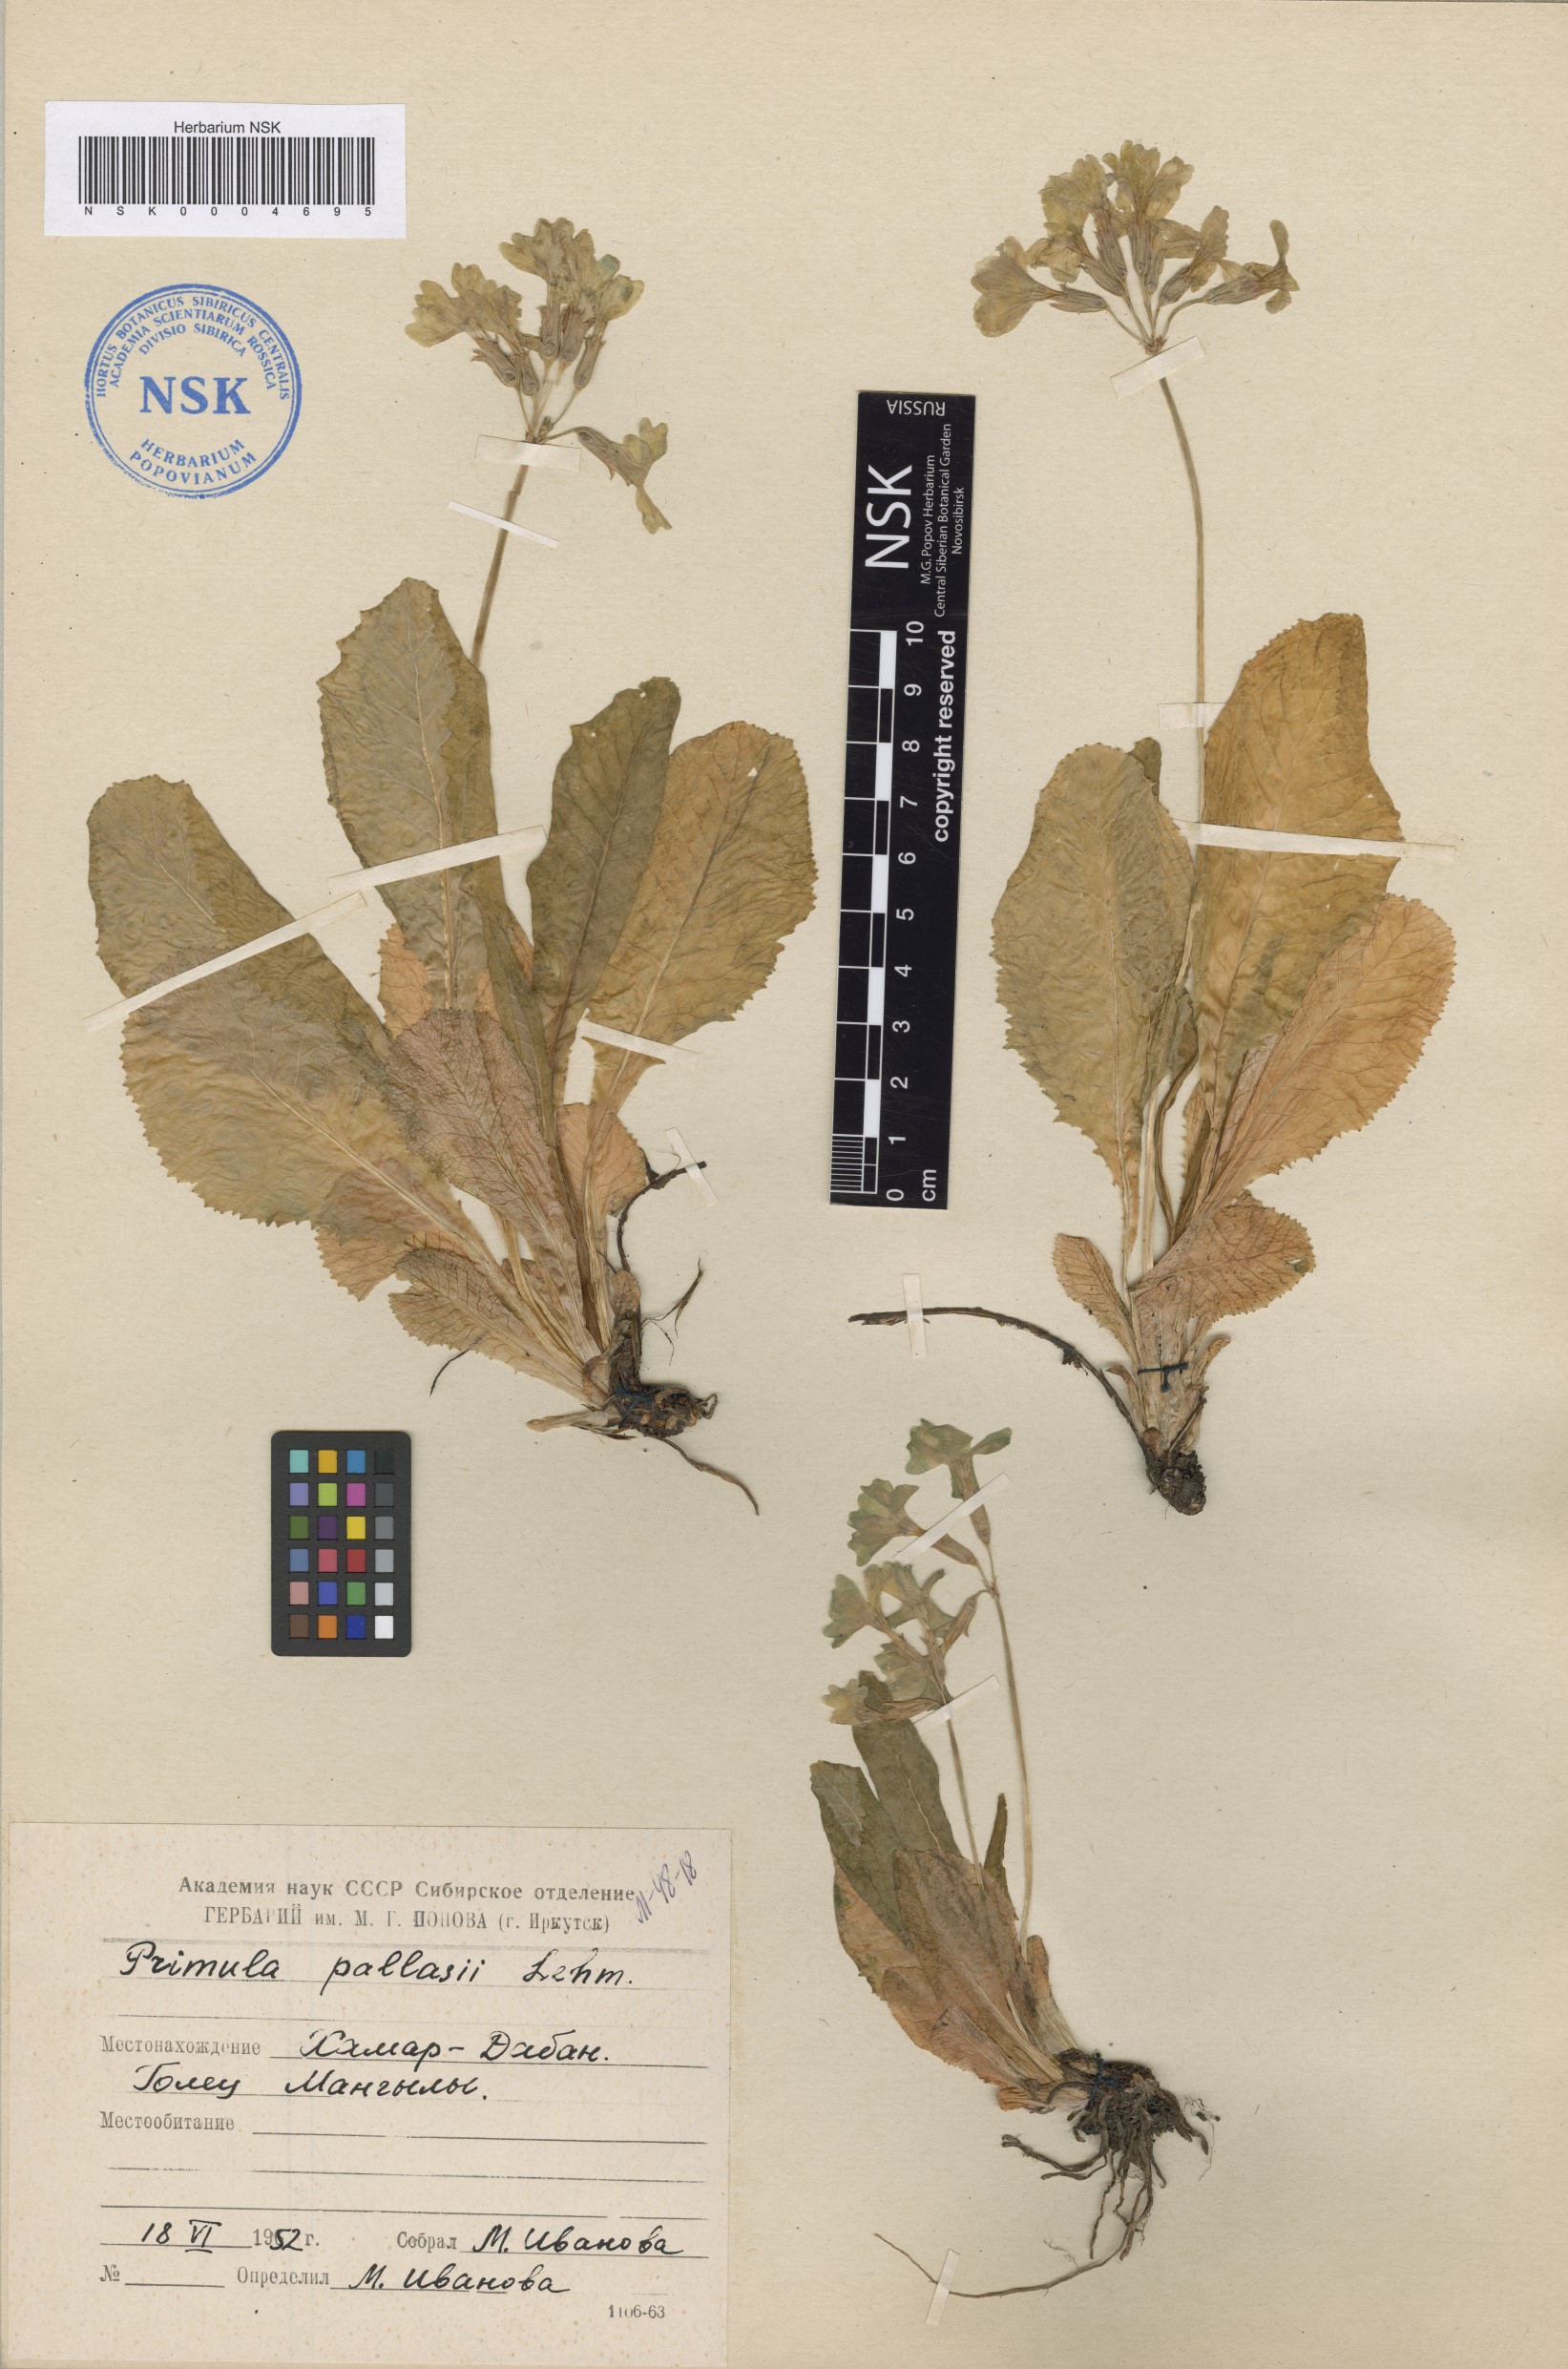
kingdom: Plantae
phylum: Tracheophyta
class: Magnoliopsida
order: Ericales
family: Primulaceae
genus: Primula
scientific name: Primula elatior
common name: Oxlip
